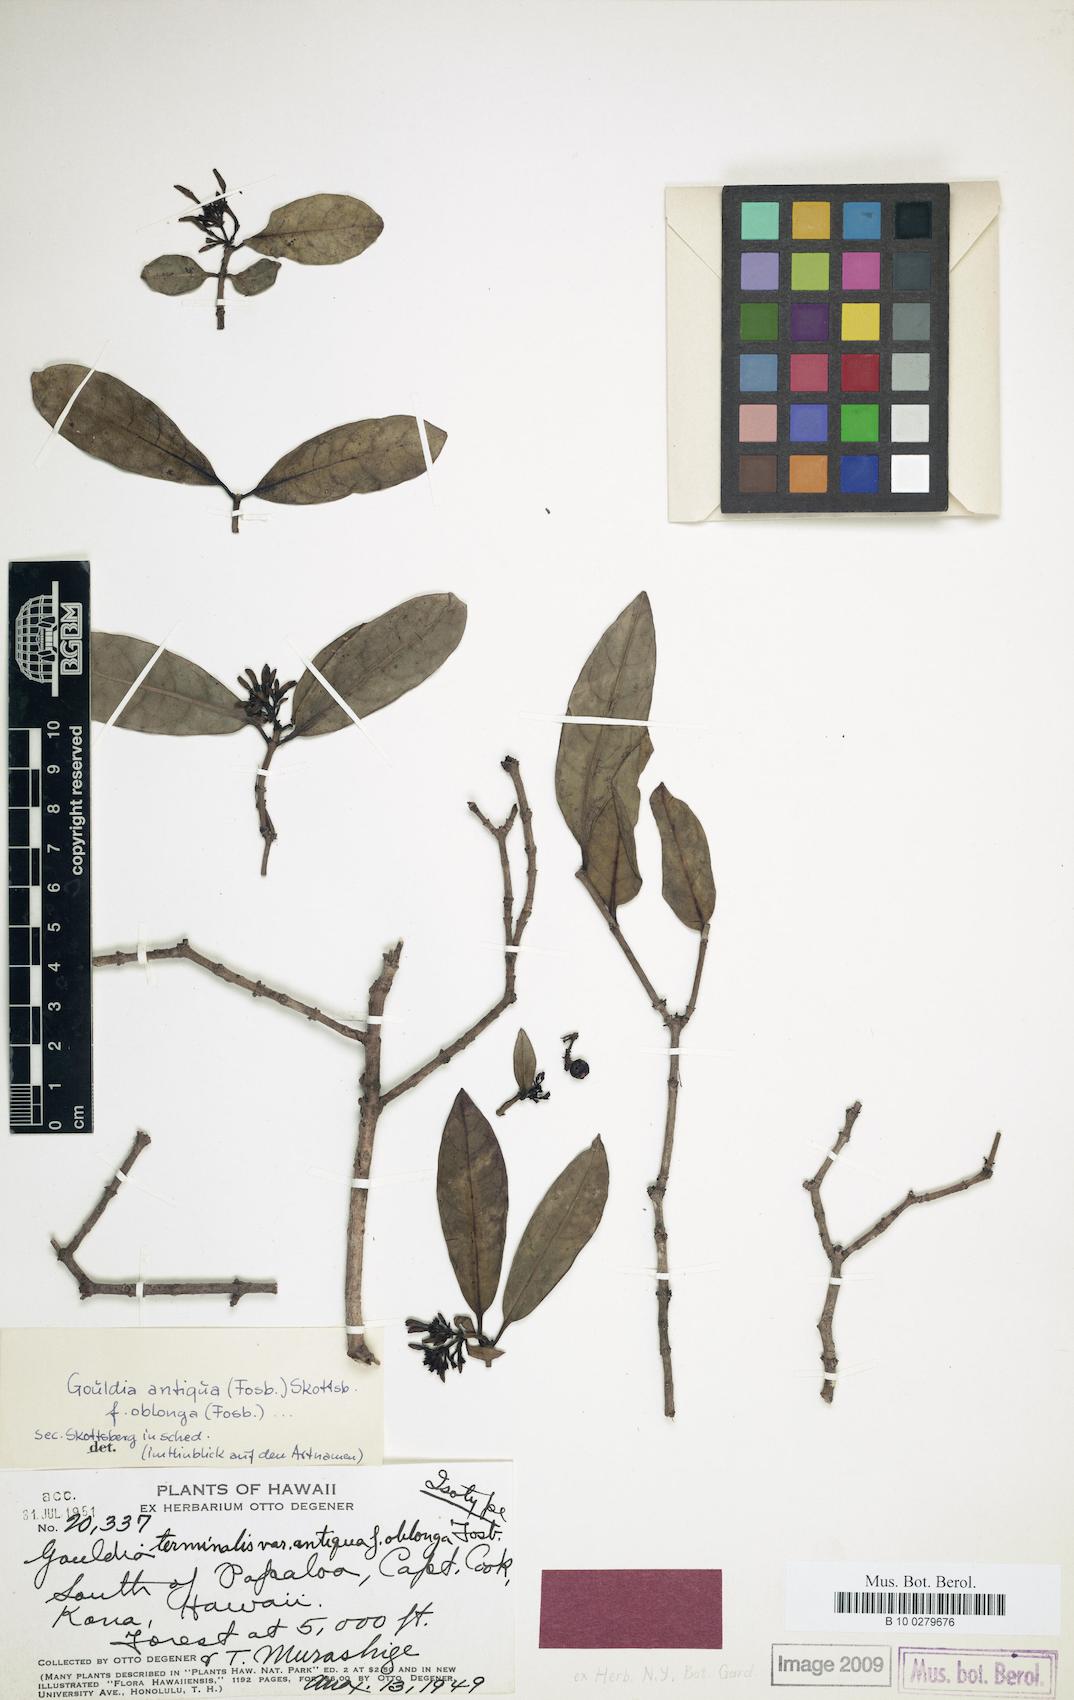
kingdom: Plantae
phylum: Tracheophyta
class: Magnoliopsida
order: Gentianales
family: Rubiaceae
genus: Kadua
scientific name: Kadua affinis
